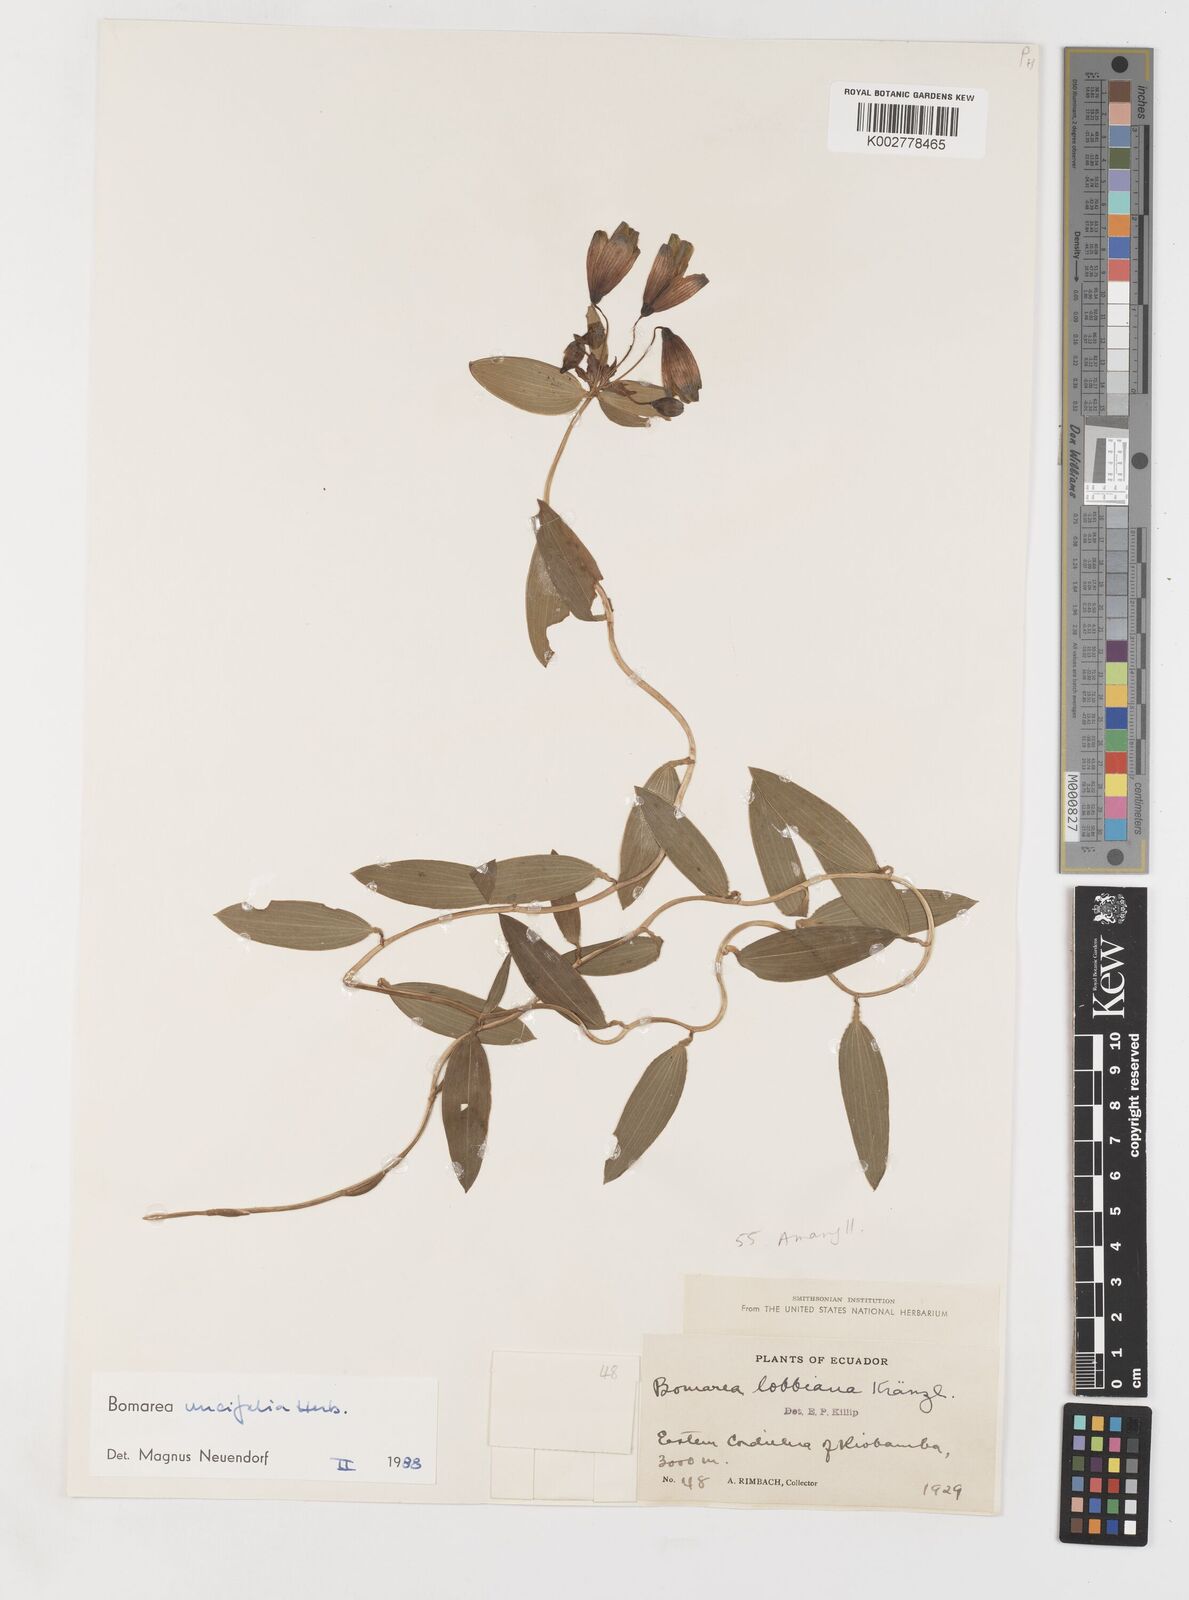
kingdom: Plantae
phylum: Tracheophyta
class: Liliopsida
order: Liliales
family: Alstroemeriaceae
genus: Bomarea
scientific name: Bomarea uncifolia
